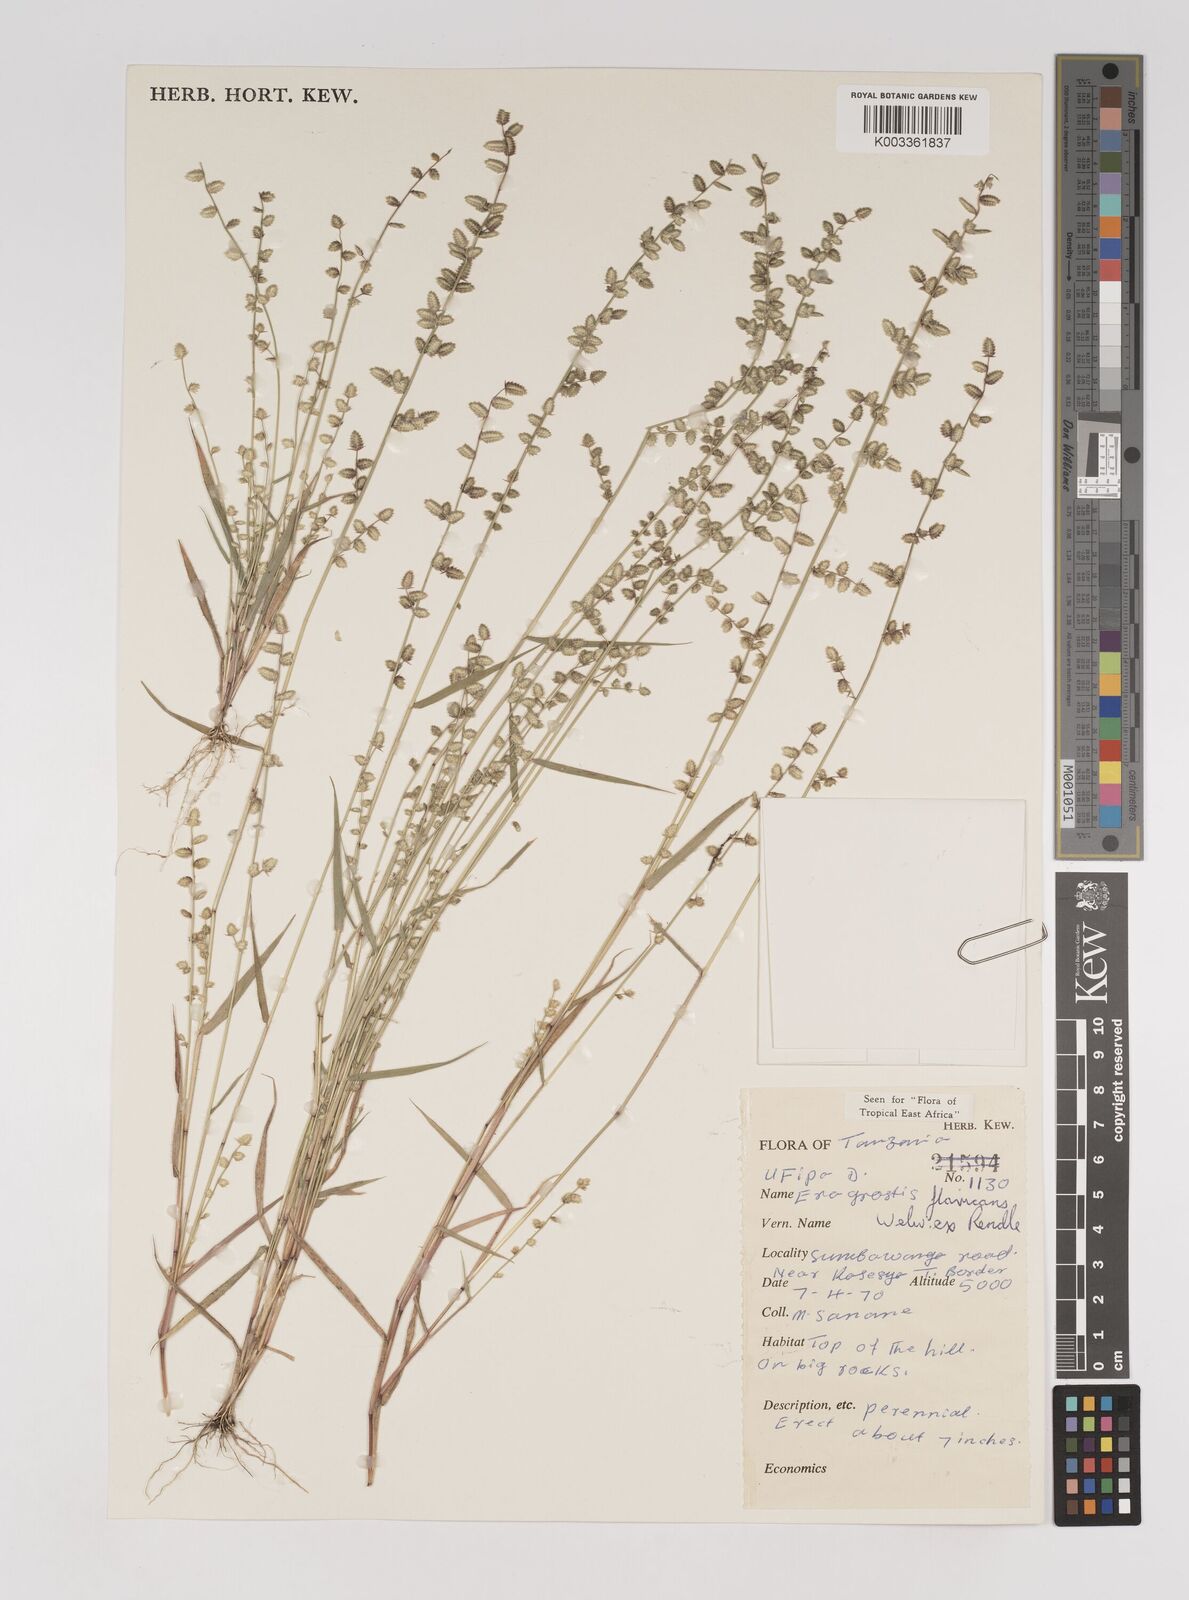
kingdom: Plantae
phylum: Tracheophyta
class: Liliopsida
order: Poales
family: Poaceae
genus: Eragrostis
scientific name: Eragrostis flavicans
